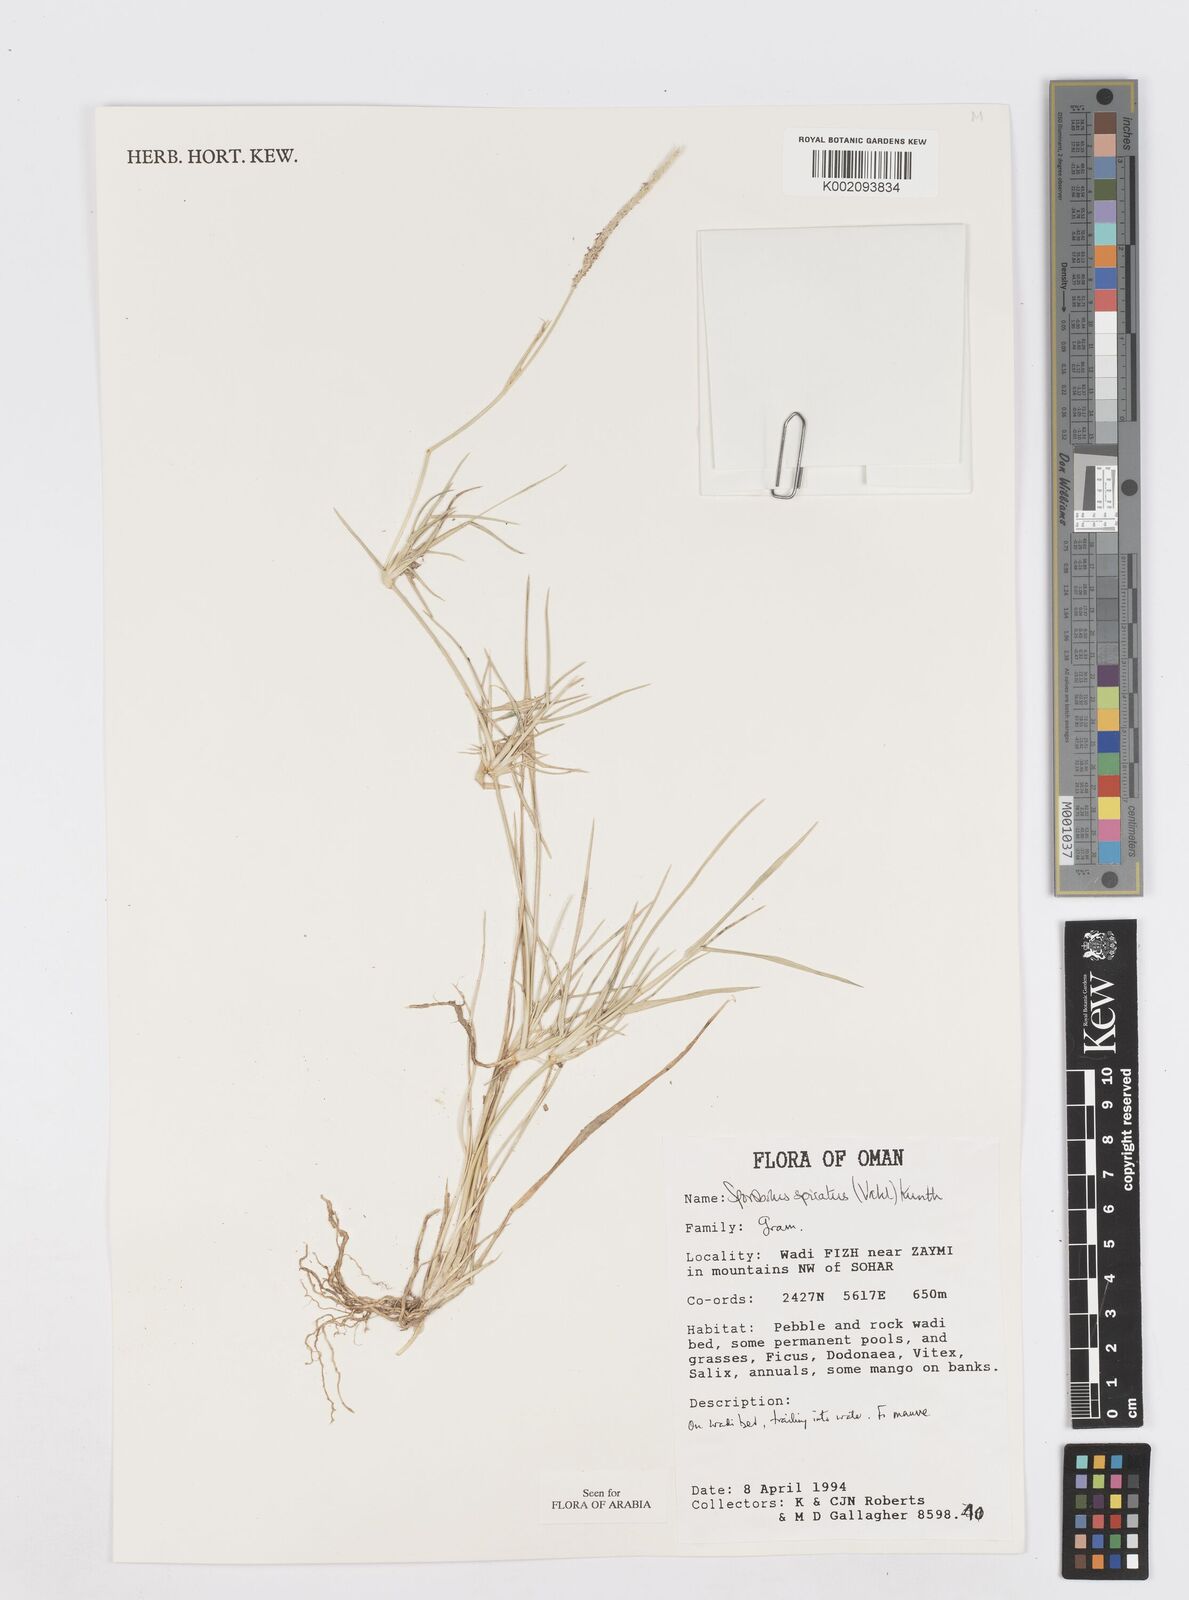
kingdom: Plantae
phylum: Tracheophyta
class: Liliopsida
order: Poales
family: Poaceae
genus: Sporobolus
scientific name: Sporobolus spicatus
